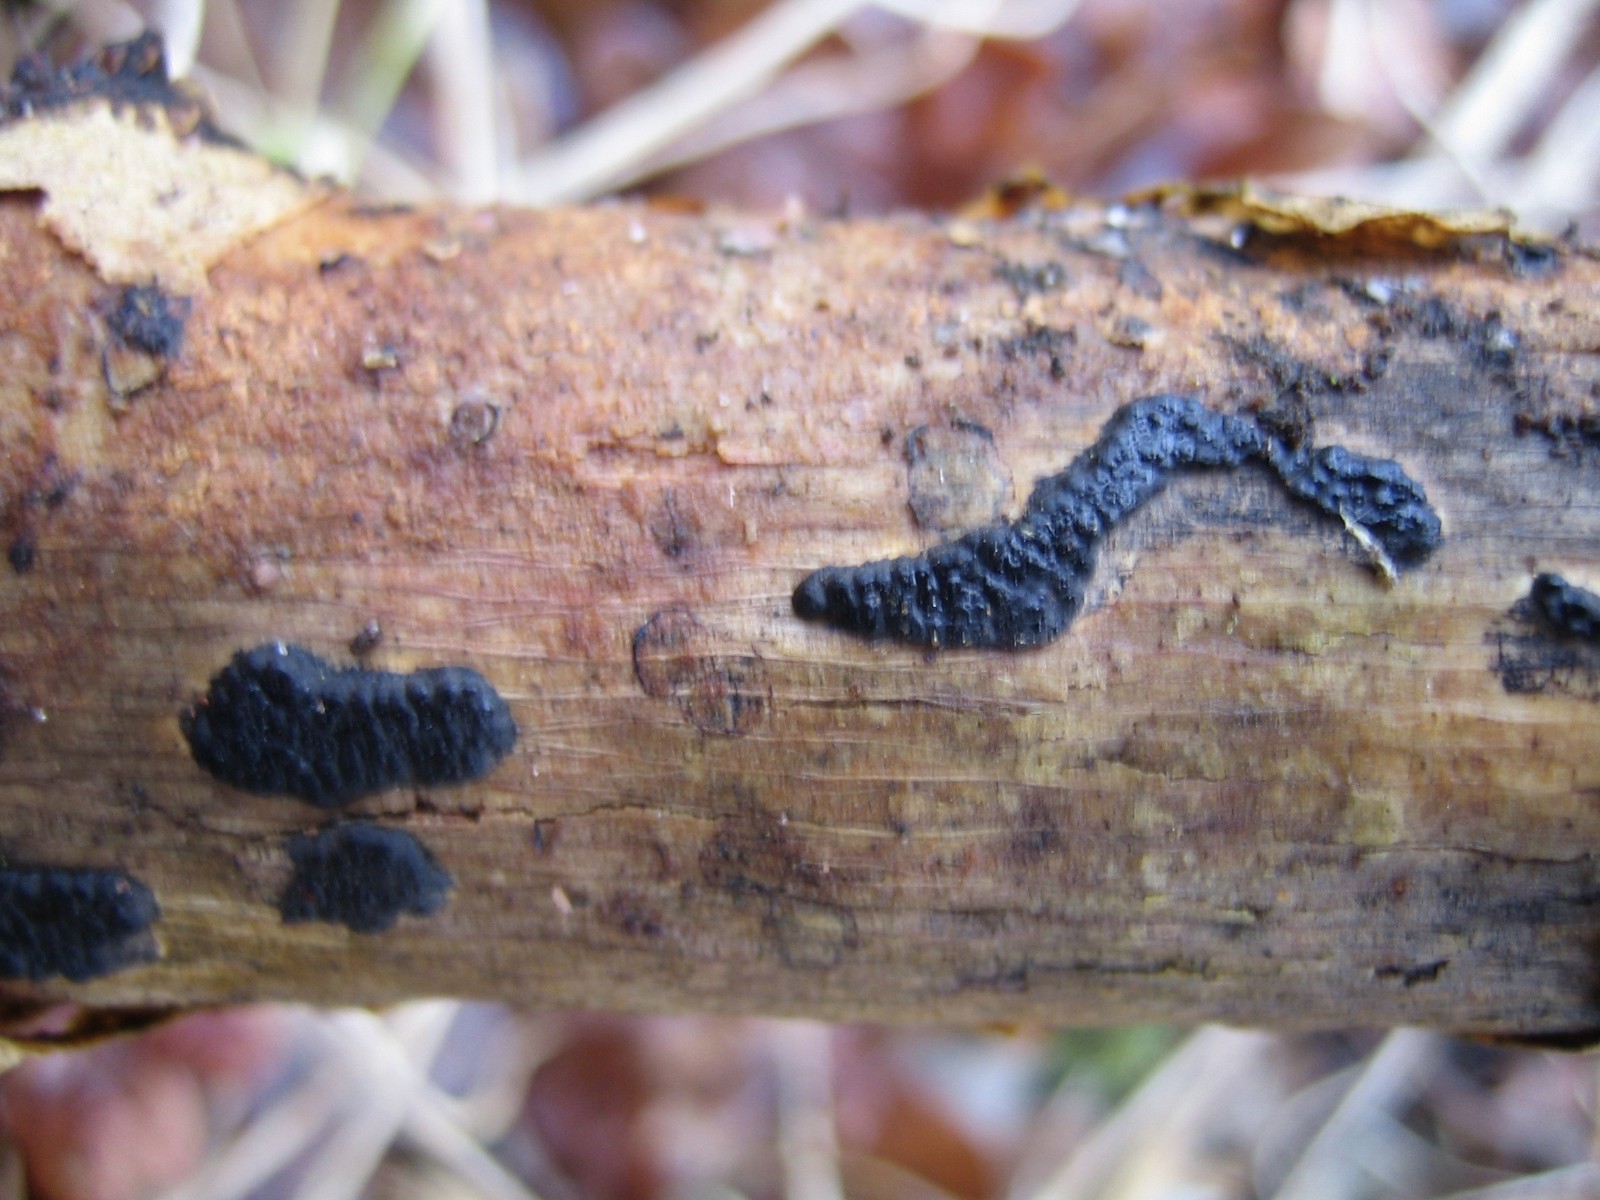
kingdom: Fungi
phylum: Ascomycota
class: Sordariomycetes
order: Xylariales
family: Xylariaceae
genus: Nemania
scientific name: Nemania
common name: kuldyne
